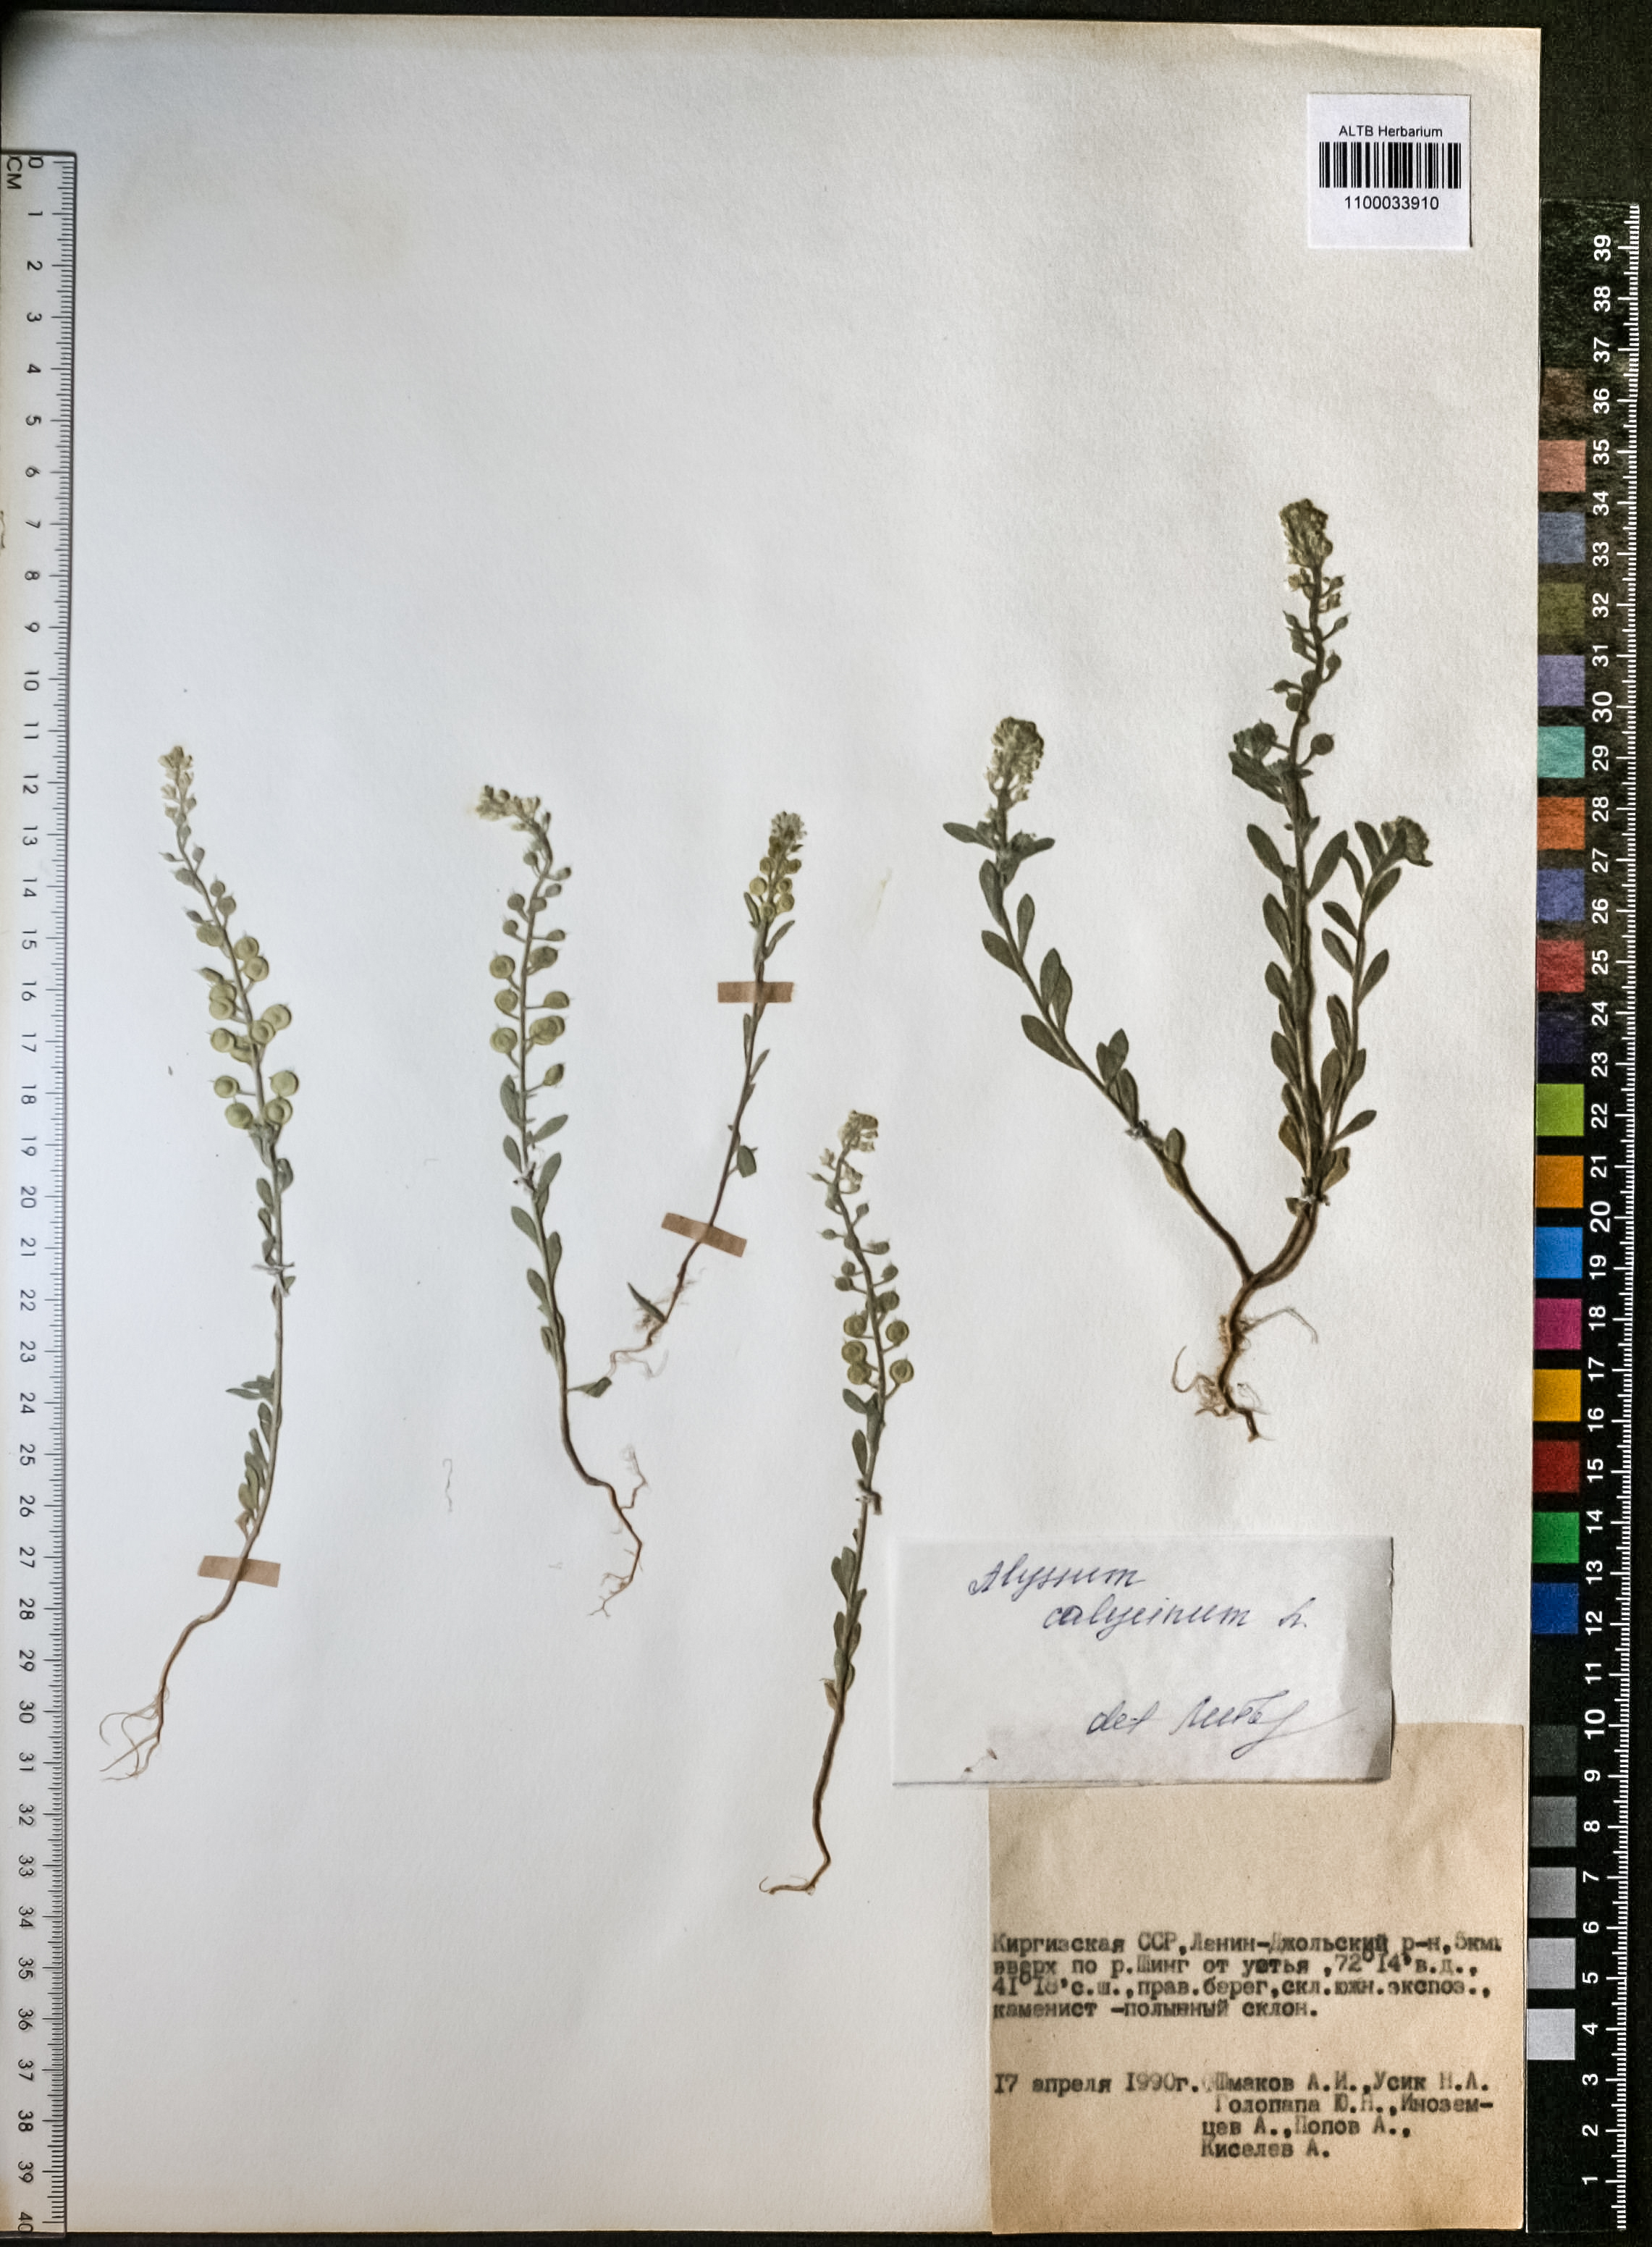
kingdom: Plantae
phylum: Tracheophyta
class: Magnoliopsida
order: Brassicales
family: Brassicaceae
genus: Alyssum
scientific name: Alyssum alyssoides
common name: Small alison
